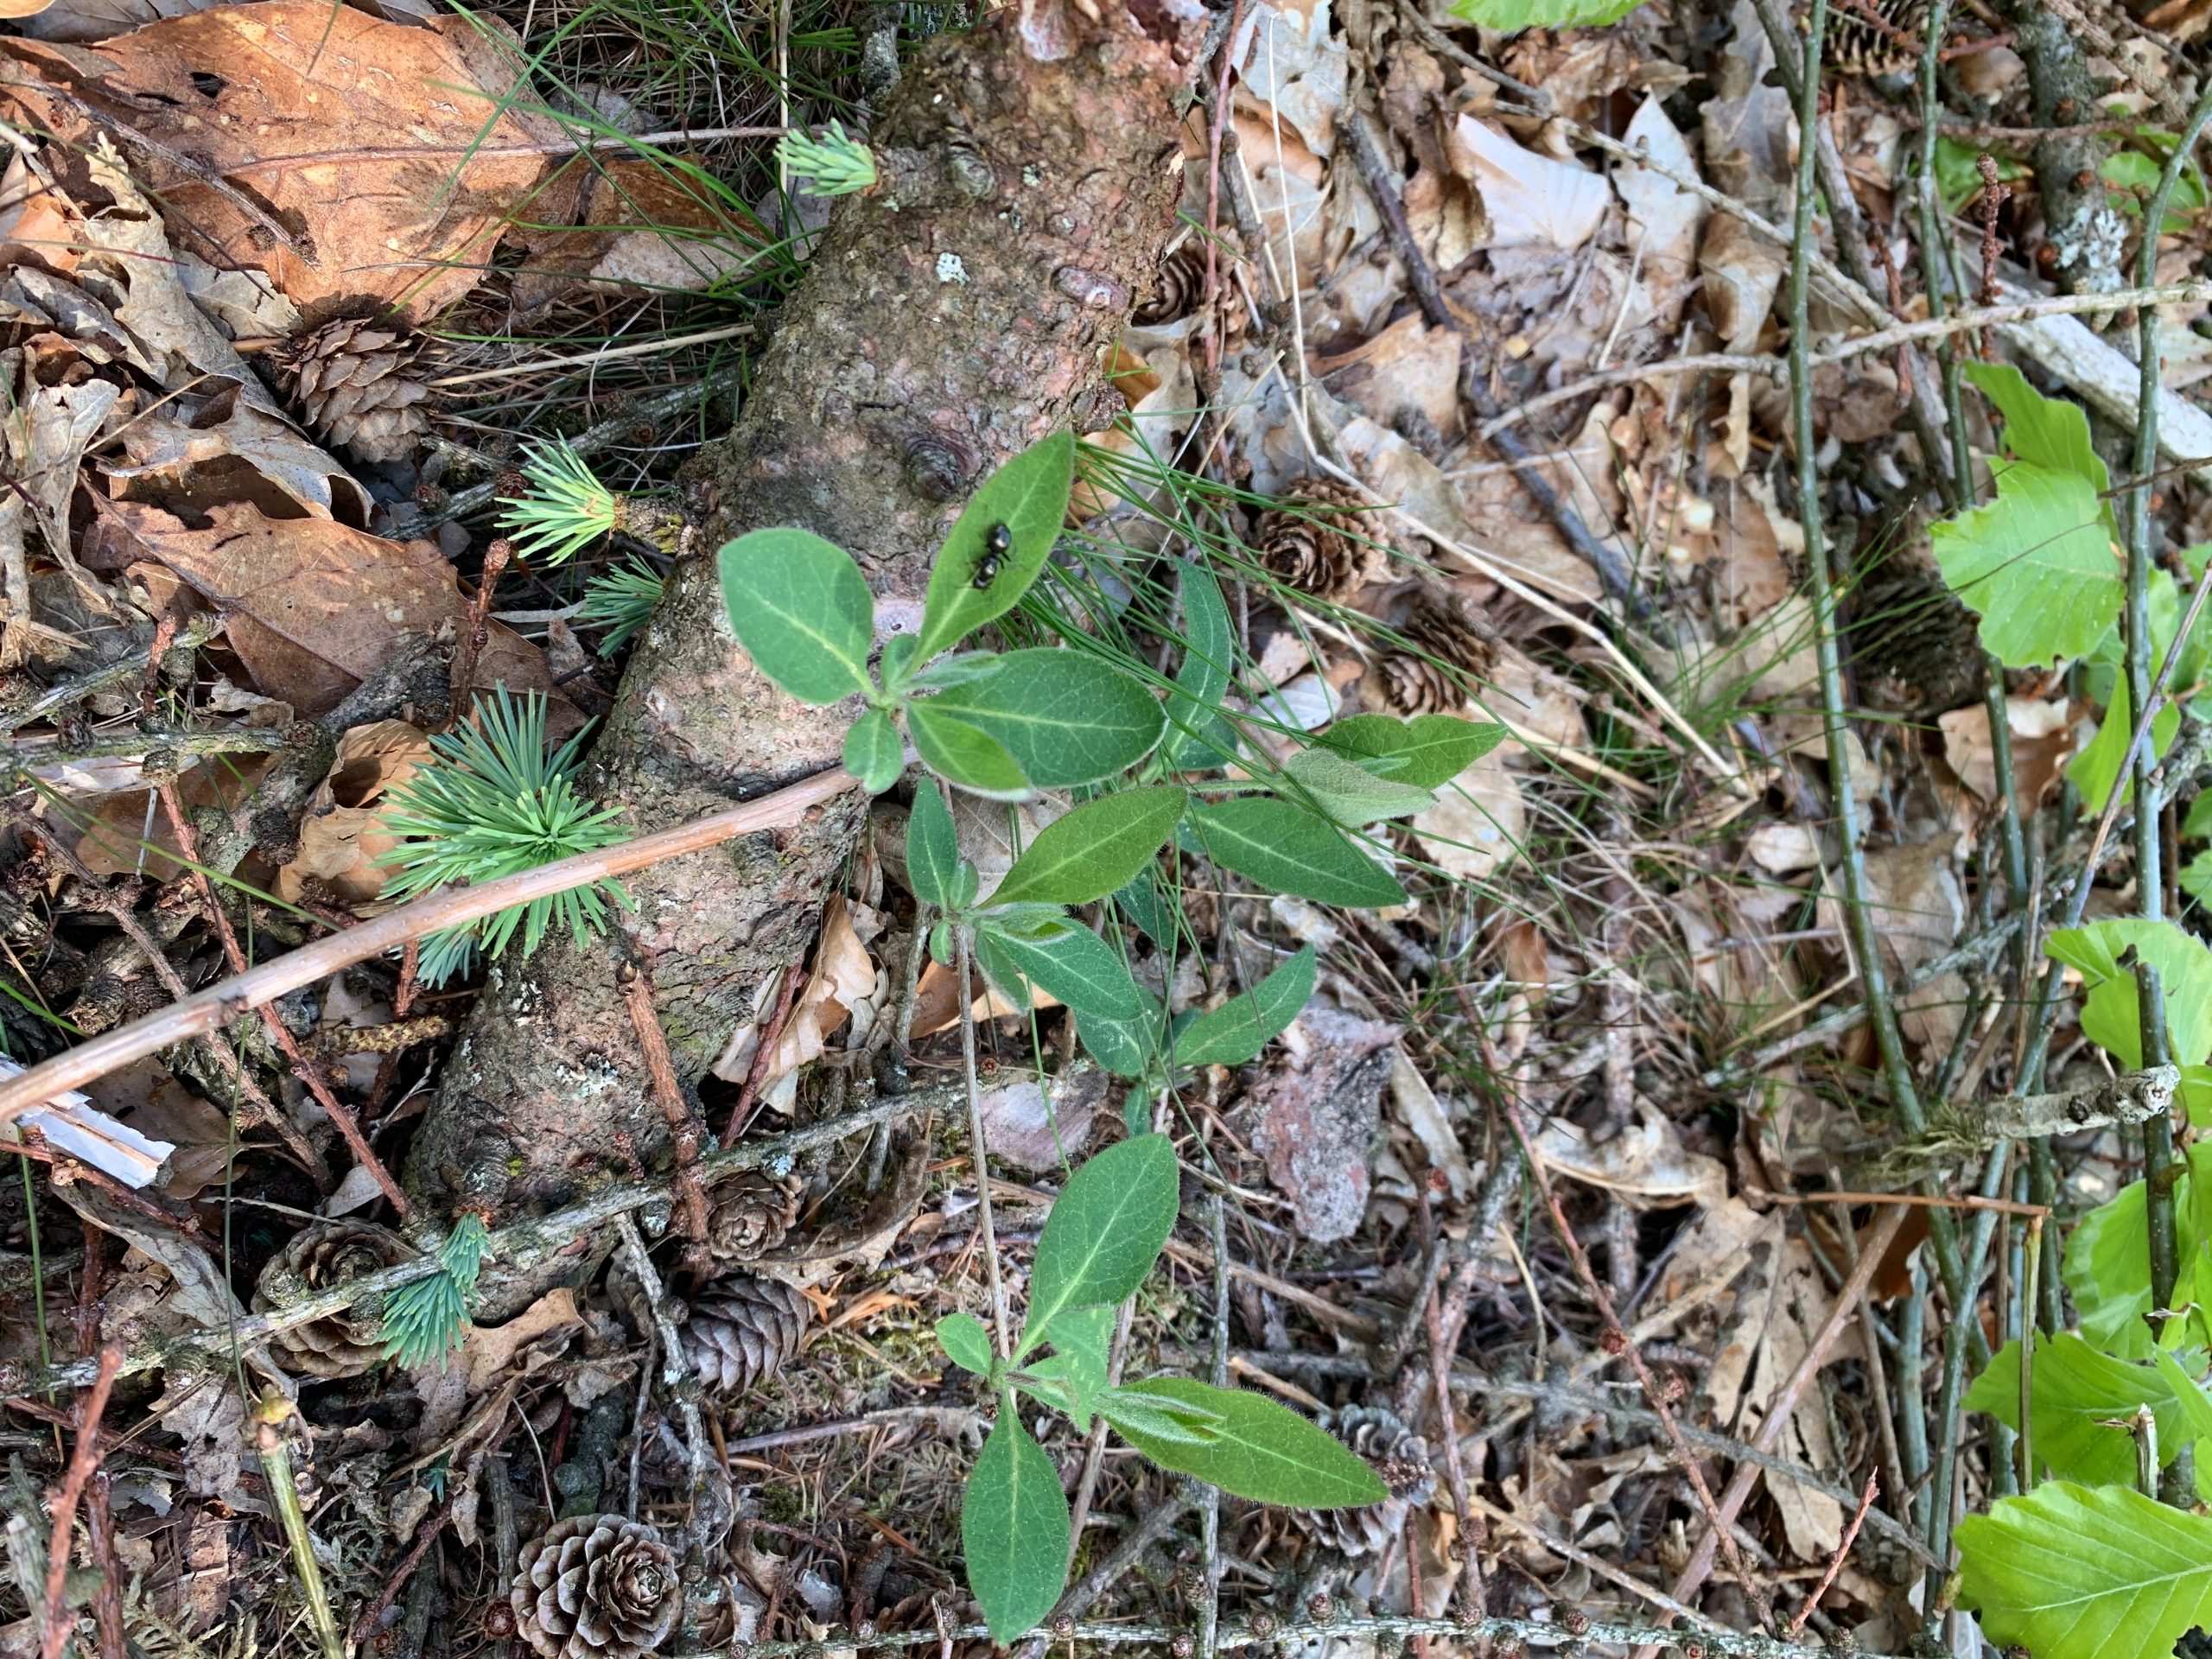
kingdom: Plantae
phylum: Tracheophyta
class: Magnoliopsida
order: Dipsacales
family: Caprifoliaceae
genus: Lonicera
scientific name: Lonicera periclymenum
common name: Almindelig gedeblad
